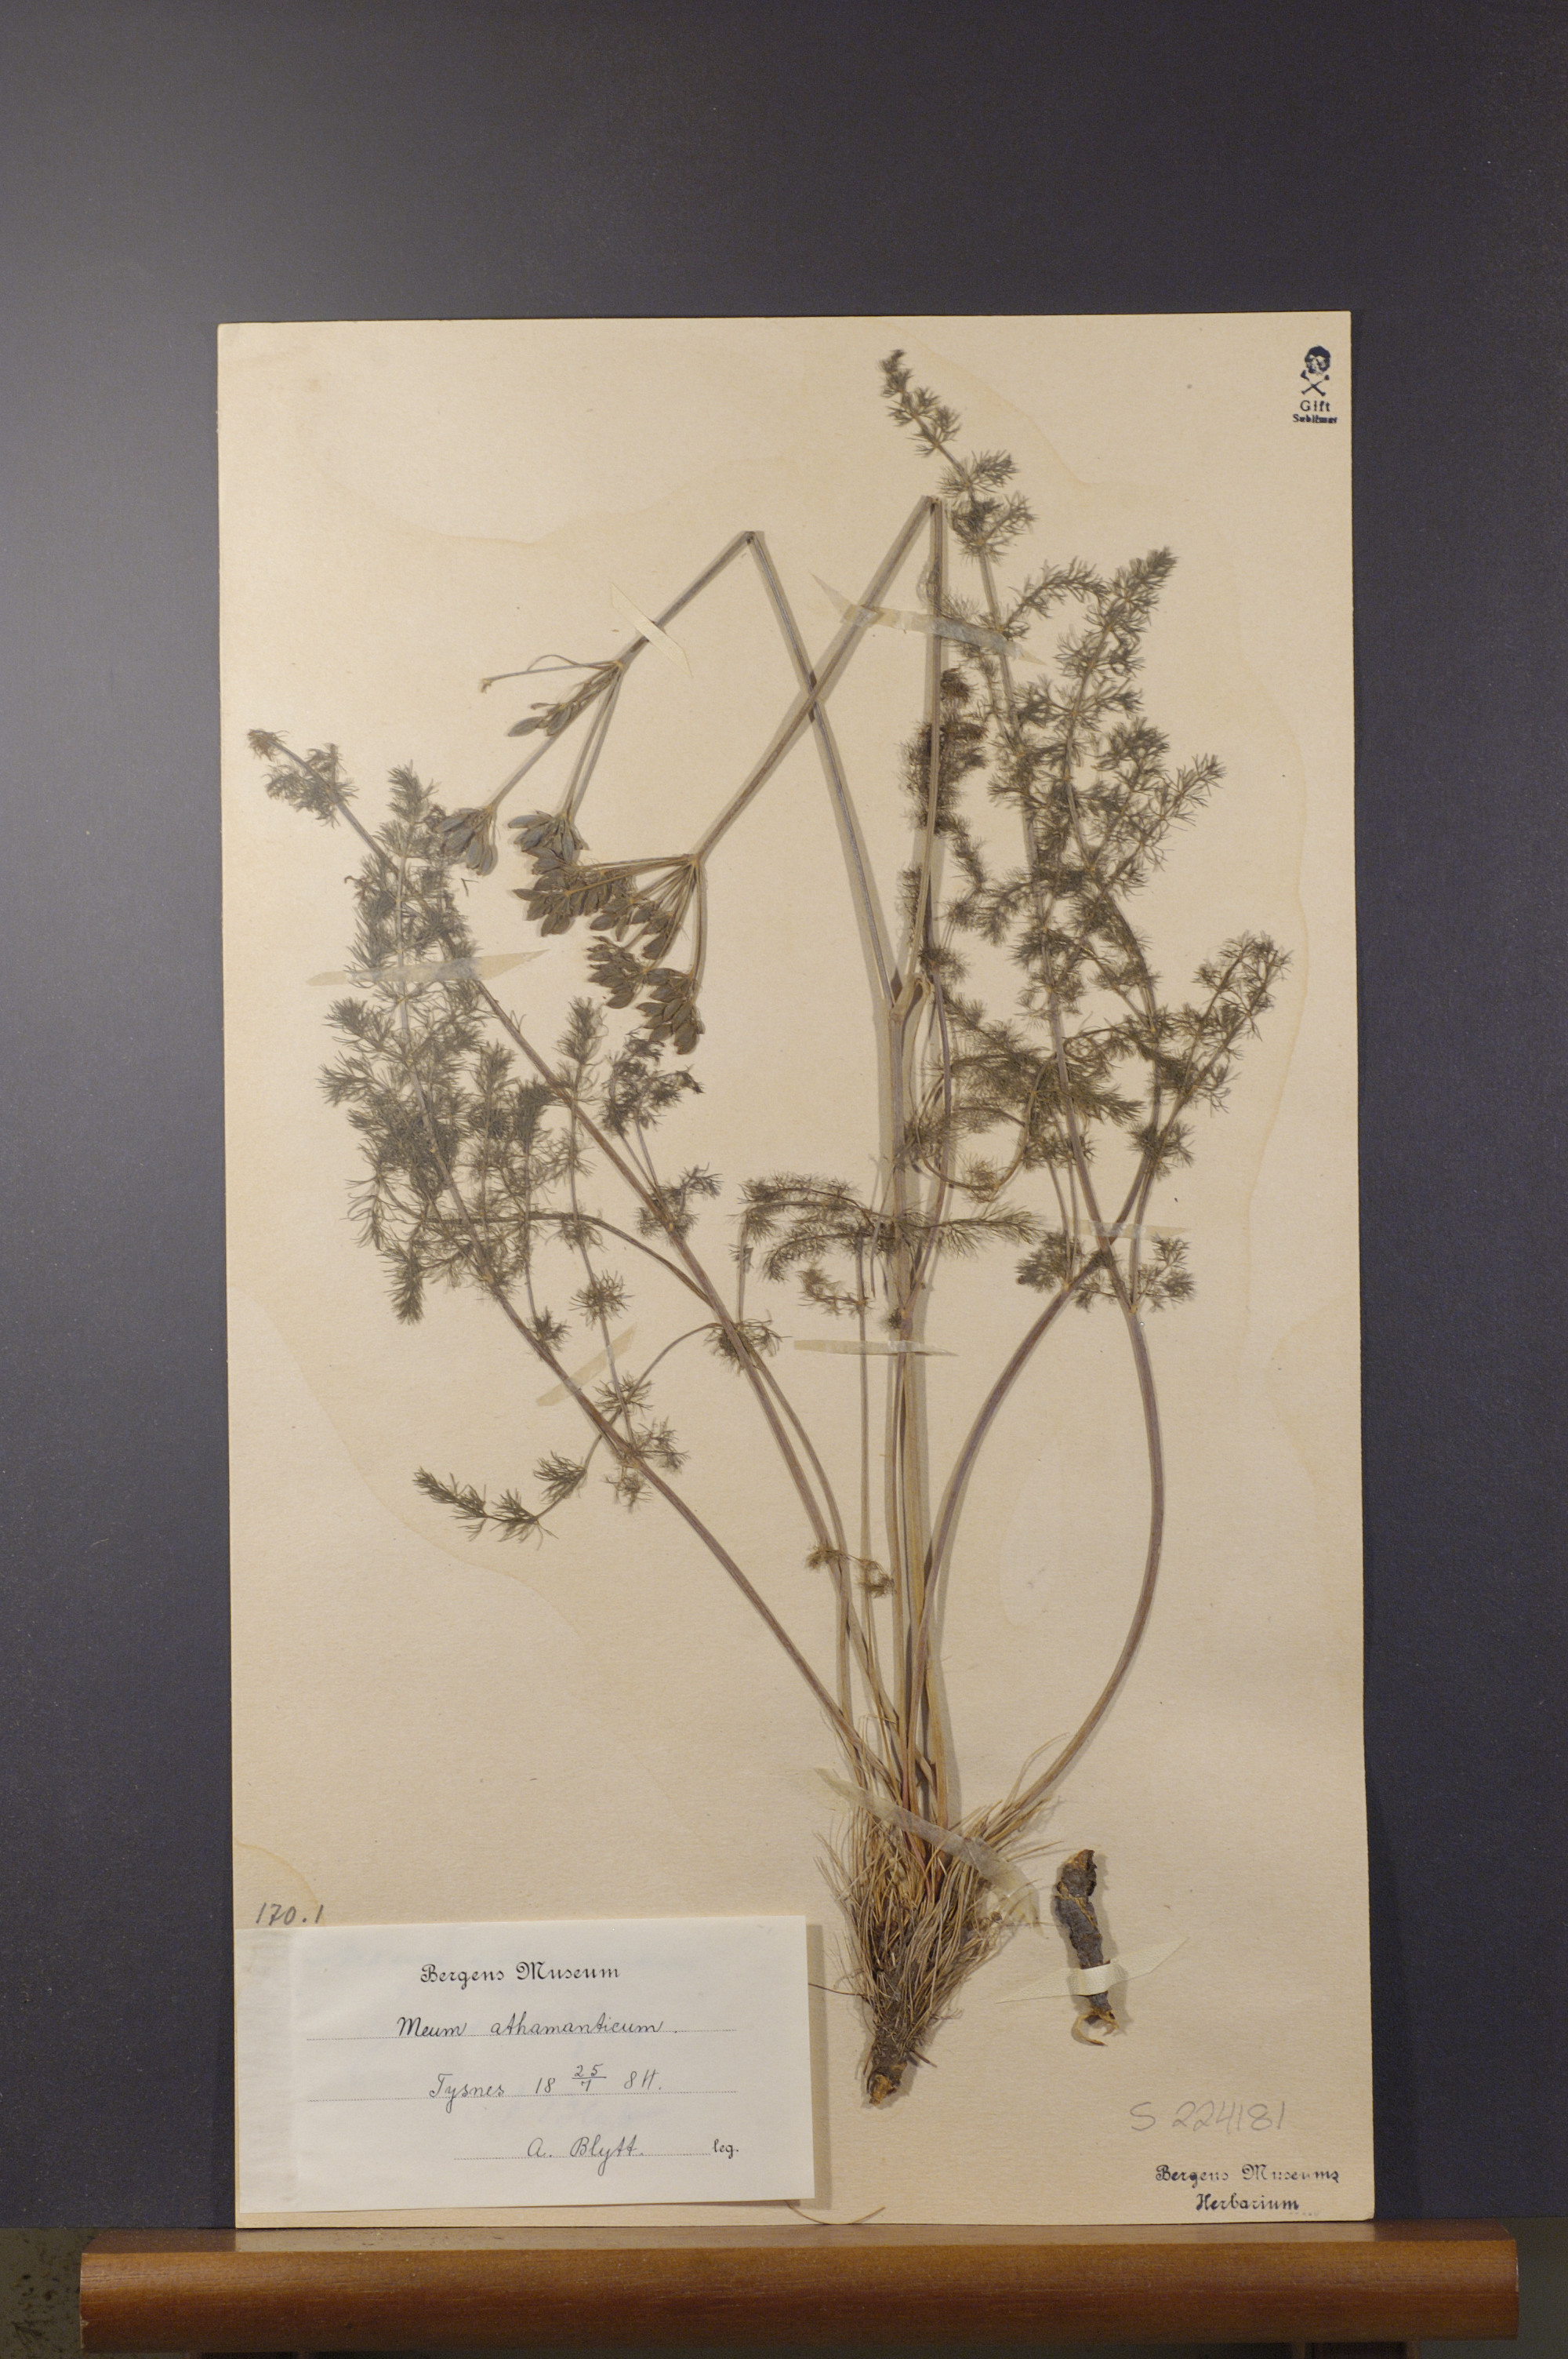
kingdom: Plantae
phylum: Tracheophyta
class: Magnoliopsida
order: Apiales
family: Apiaceae
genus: Meum
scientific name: Meum athamanticum
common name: Spignel
